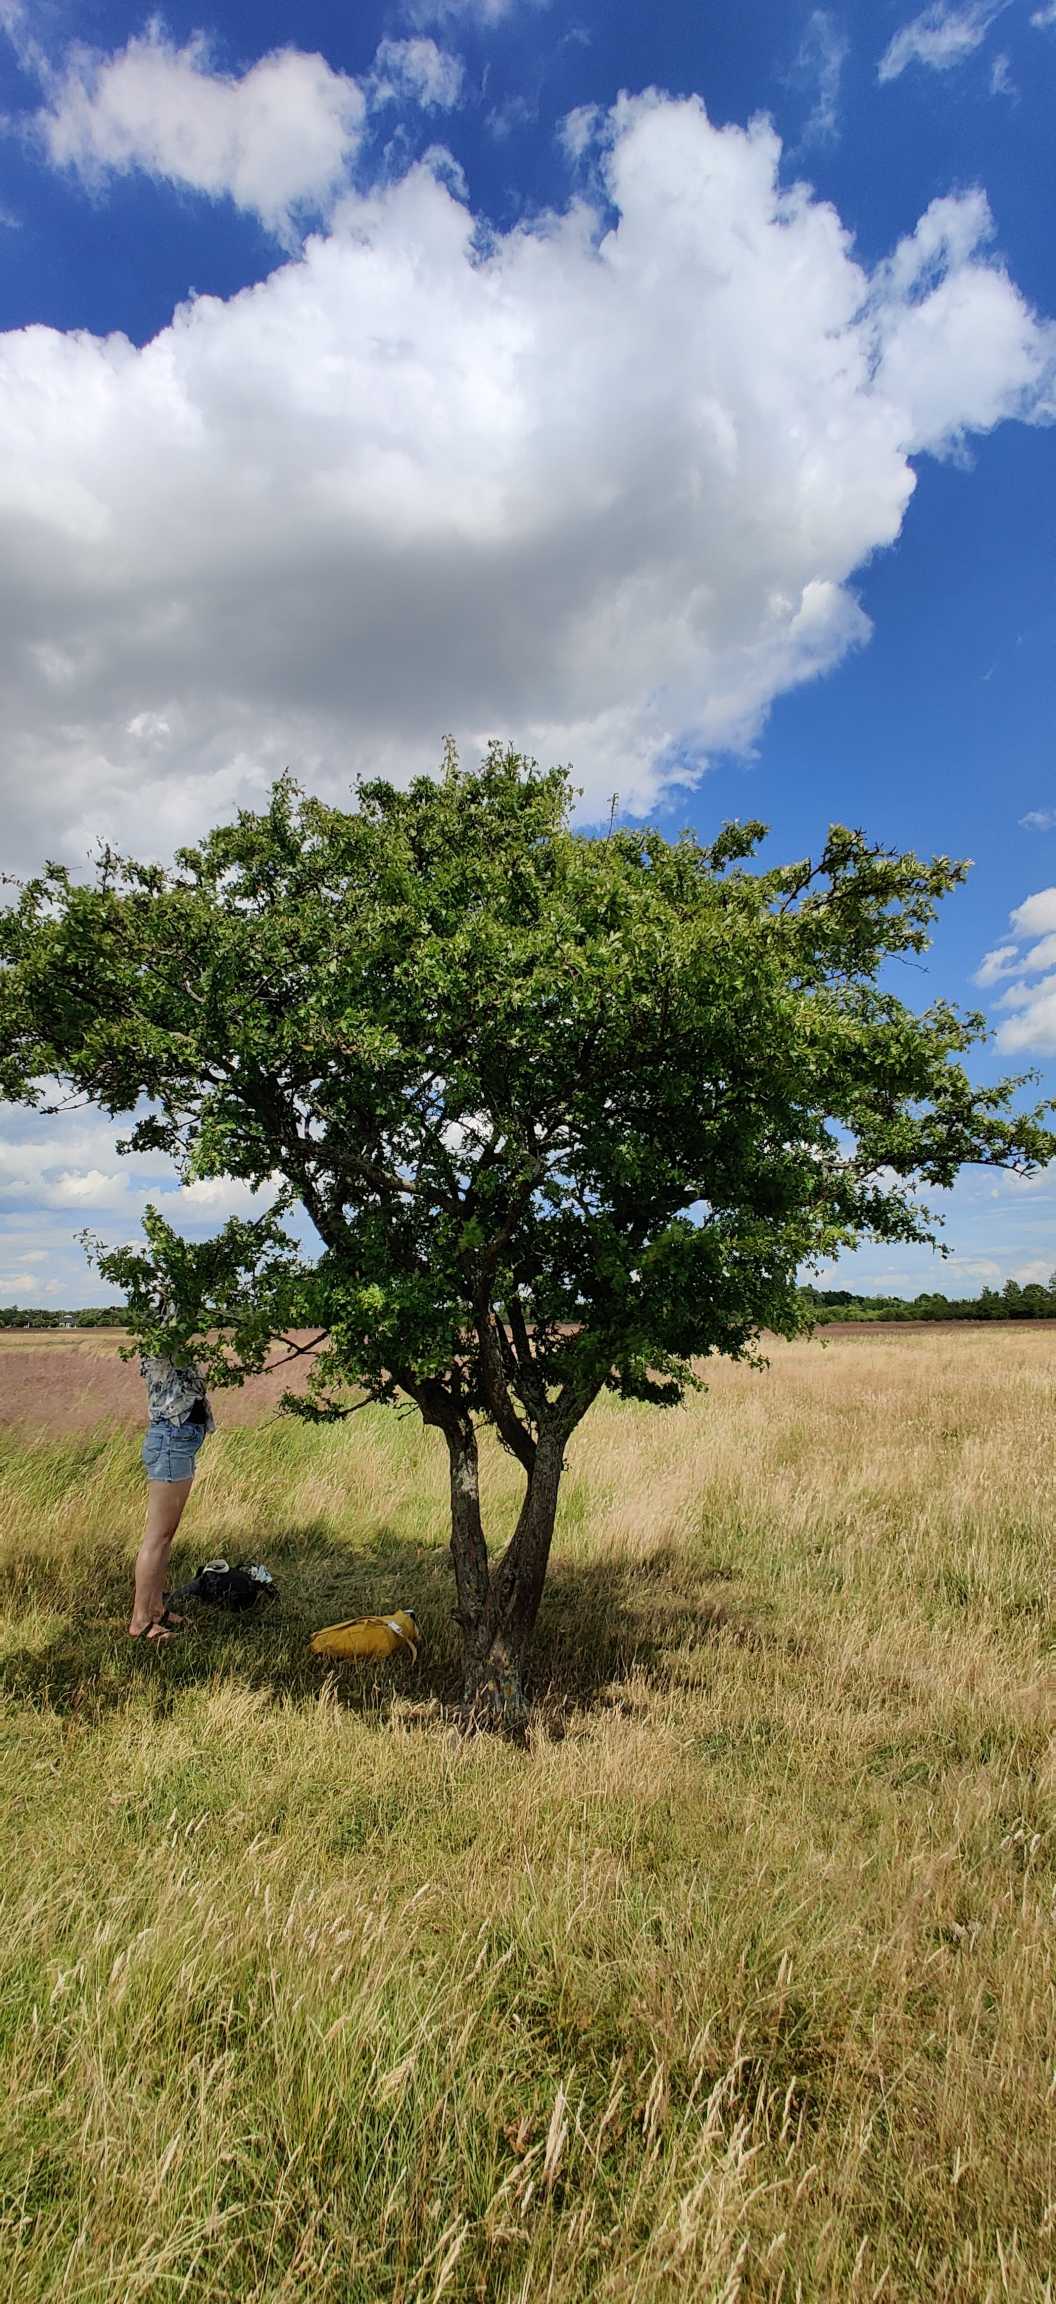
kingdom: Plantae
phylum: Tracheophyta
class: Magnoliopsida
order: Rosales
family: Rosaceae
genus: Crataegus
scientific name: Crataegus monogyna
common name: Engriflet hvidtjørn
